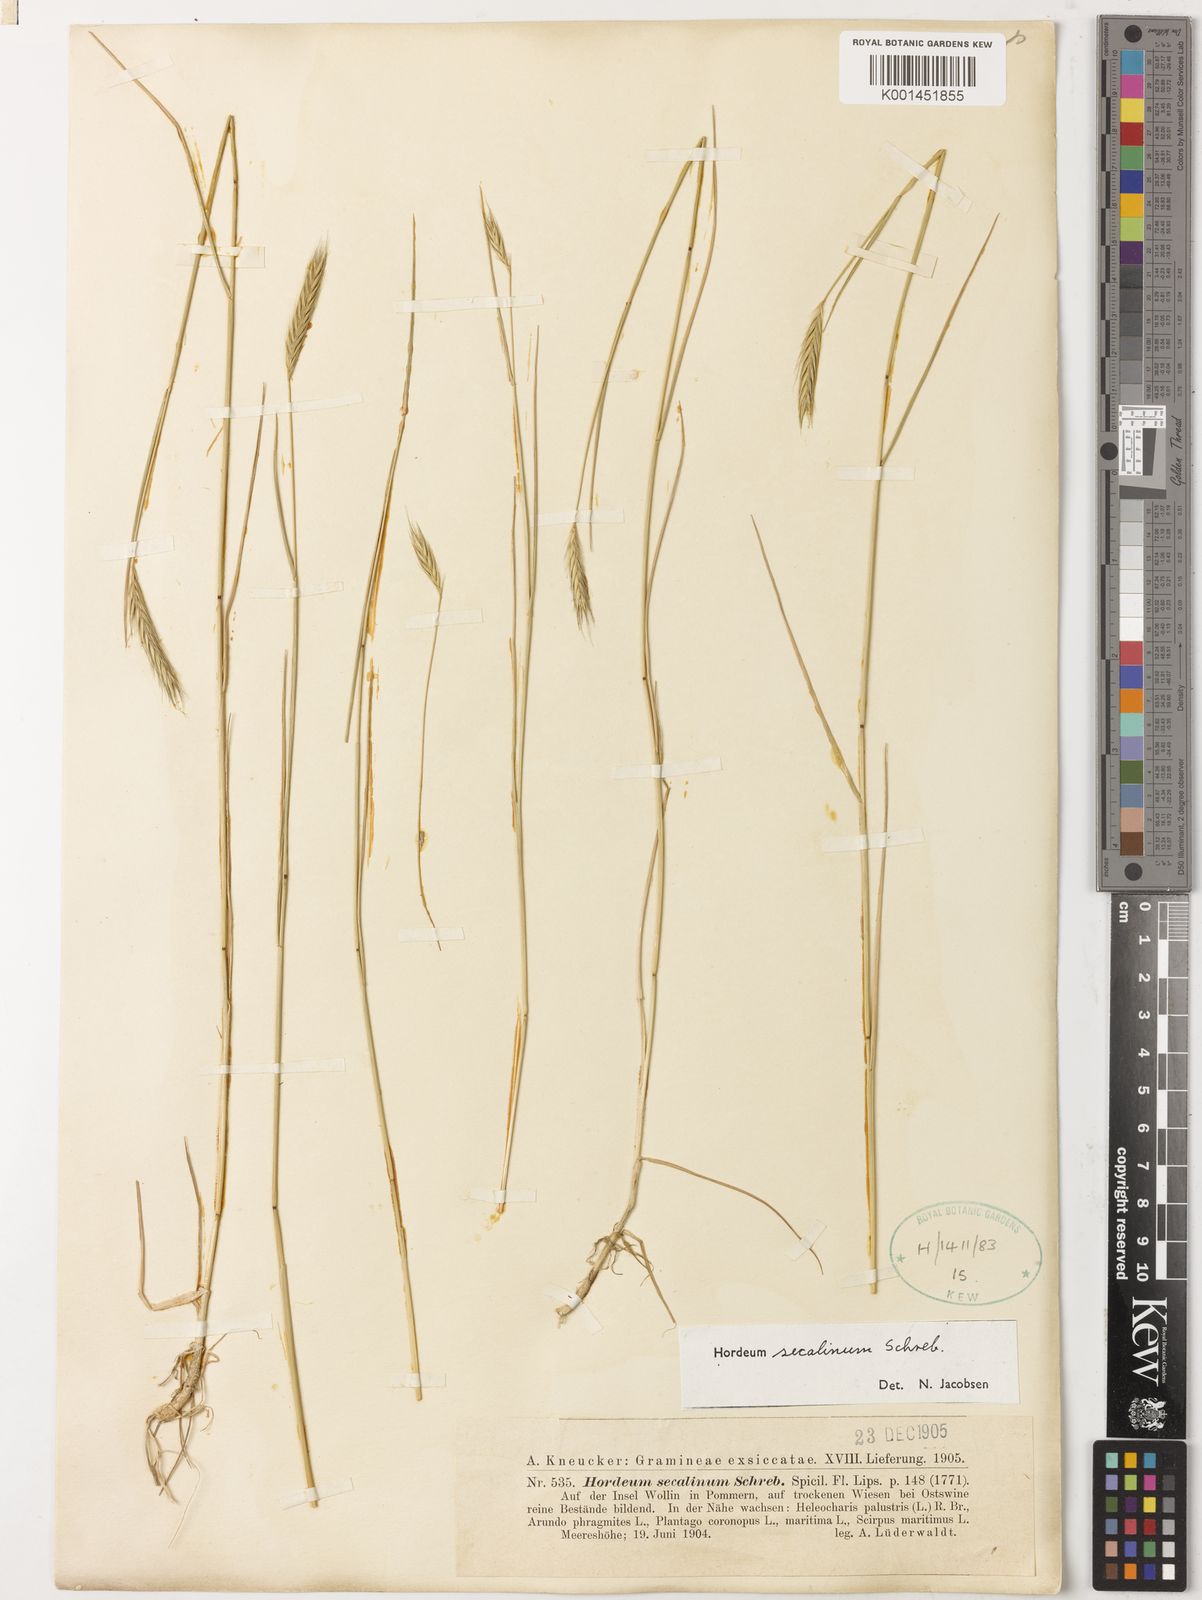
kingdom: Plantae
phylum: Tracheophyta
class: Liliopsida
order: Poales
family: Poaceae
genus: Hordeum
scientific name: Hordeum secalinum
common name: Meadow barley
